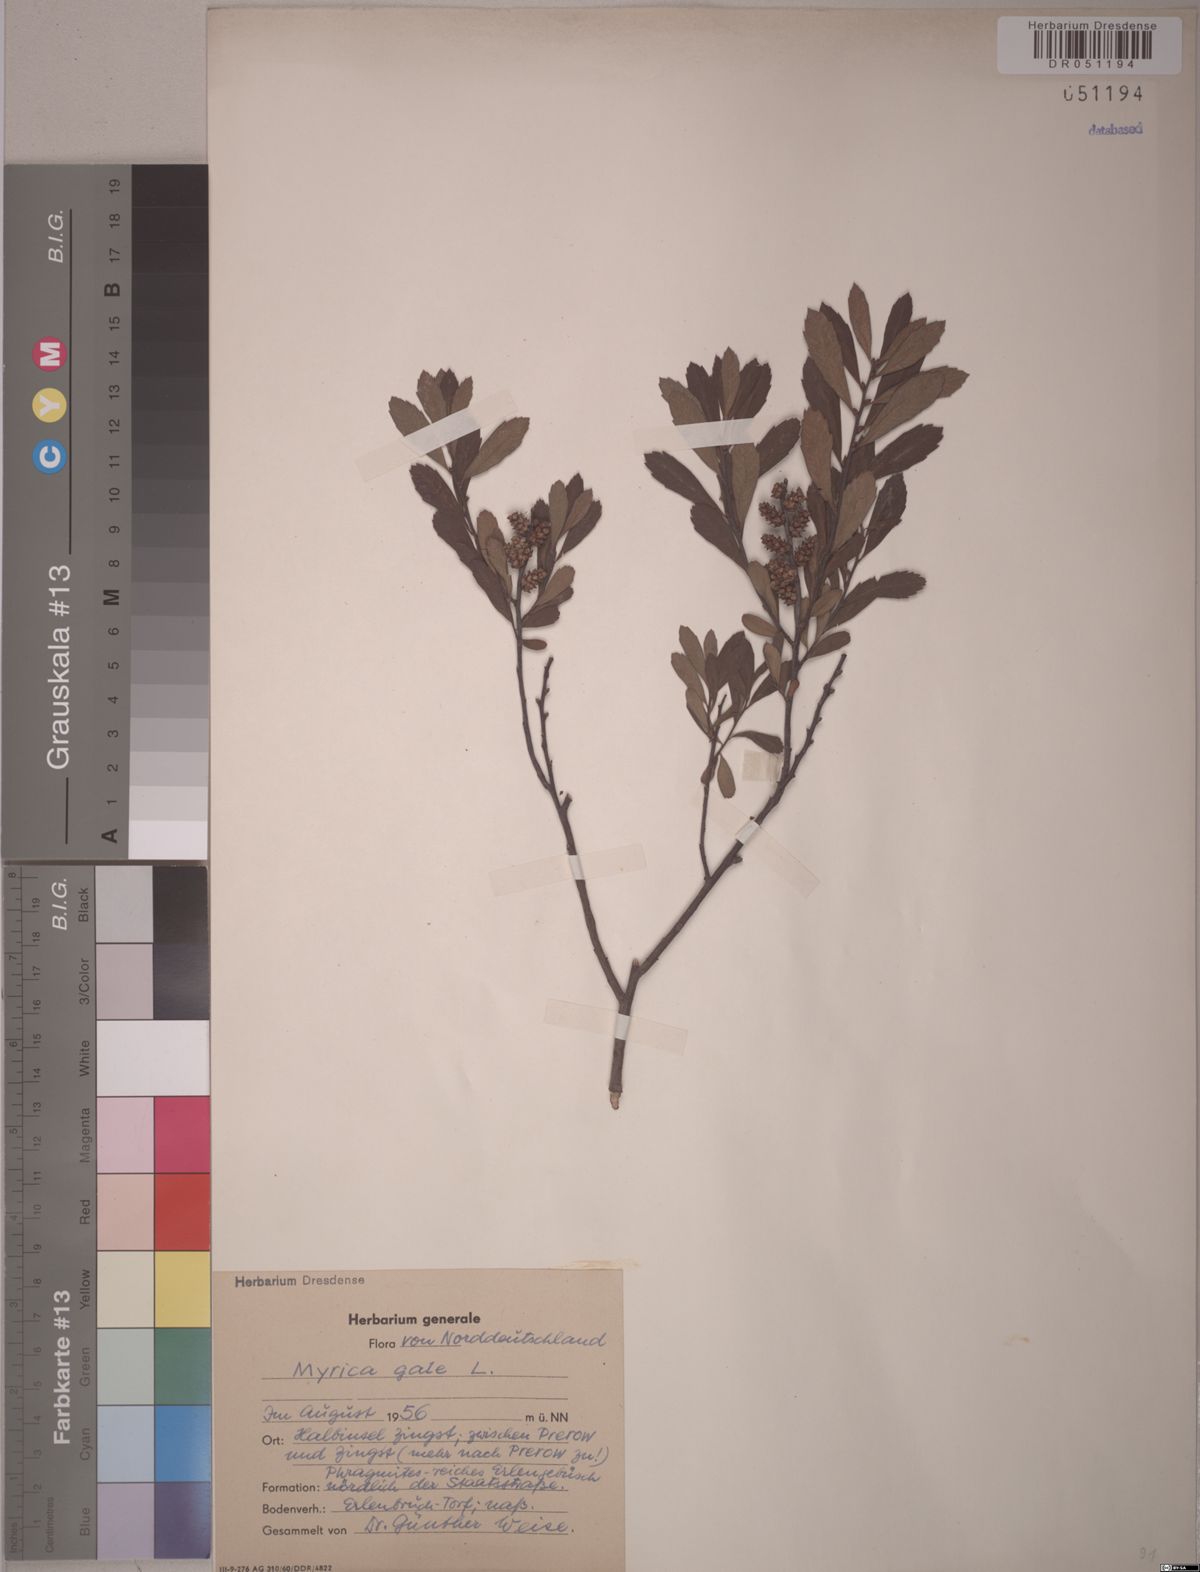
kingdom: Plantae
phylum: Tracheophyta
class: Magnoliopsida
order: Fagales
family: Myricaceae
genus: Myrica
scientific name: Myrica gale
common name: Sweet gale
